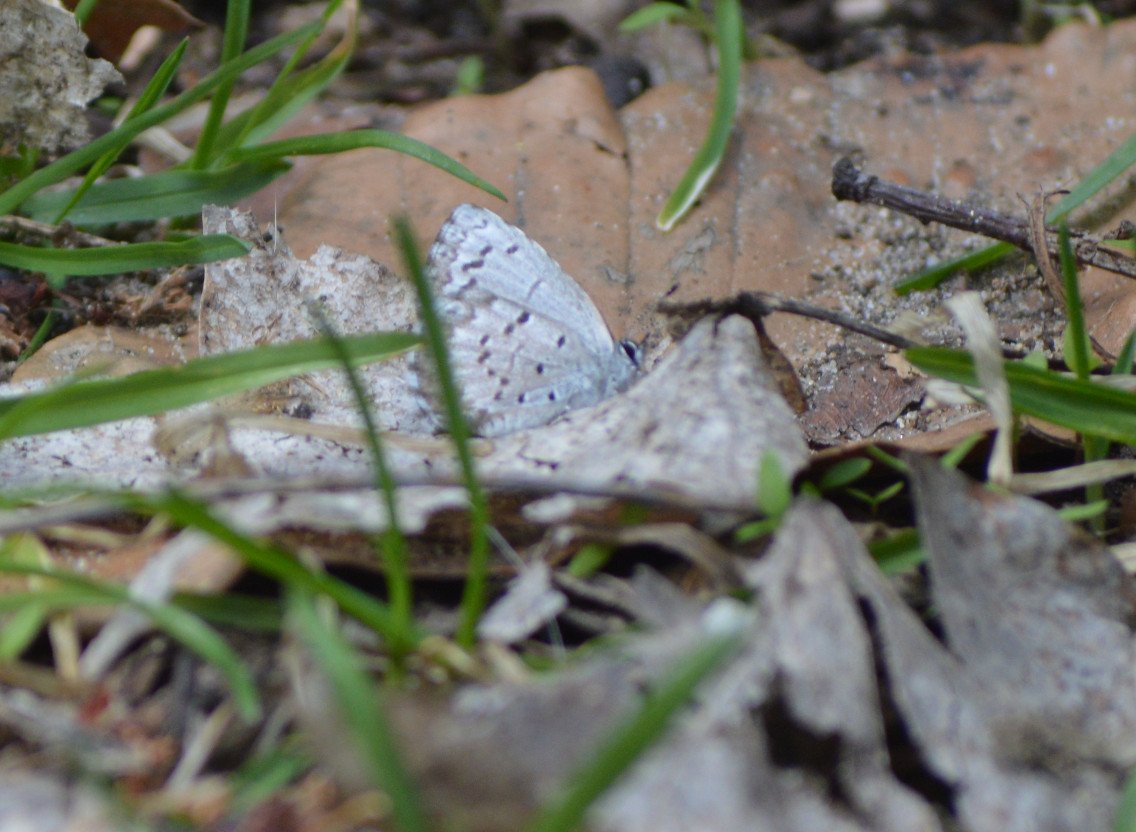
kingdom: Animalia
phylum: Arthropoda
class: Insecta
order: Lepidoptera
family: Lycaenidae
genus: Celastrina
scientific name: Celastrina lucia
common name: Northern Spring Azure
